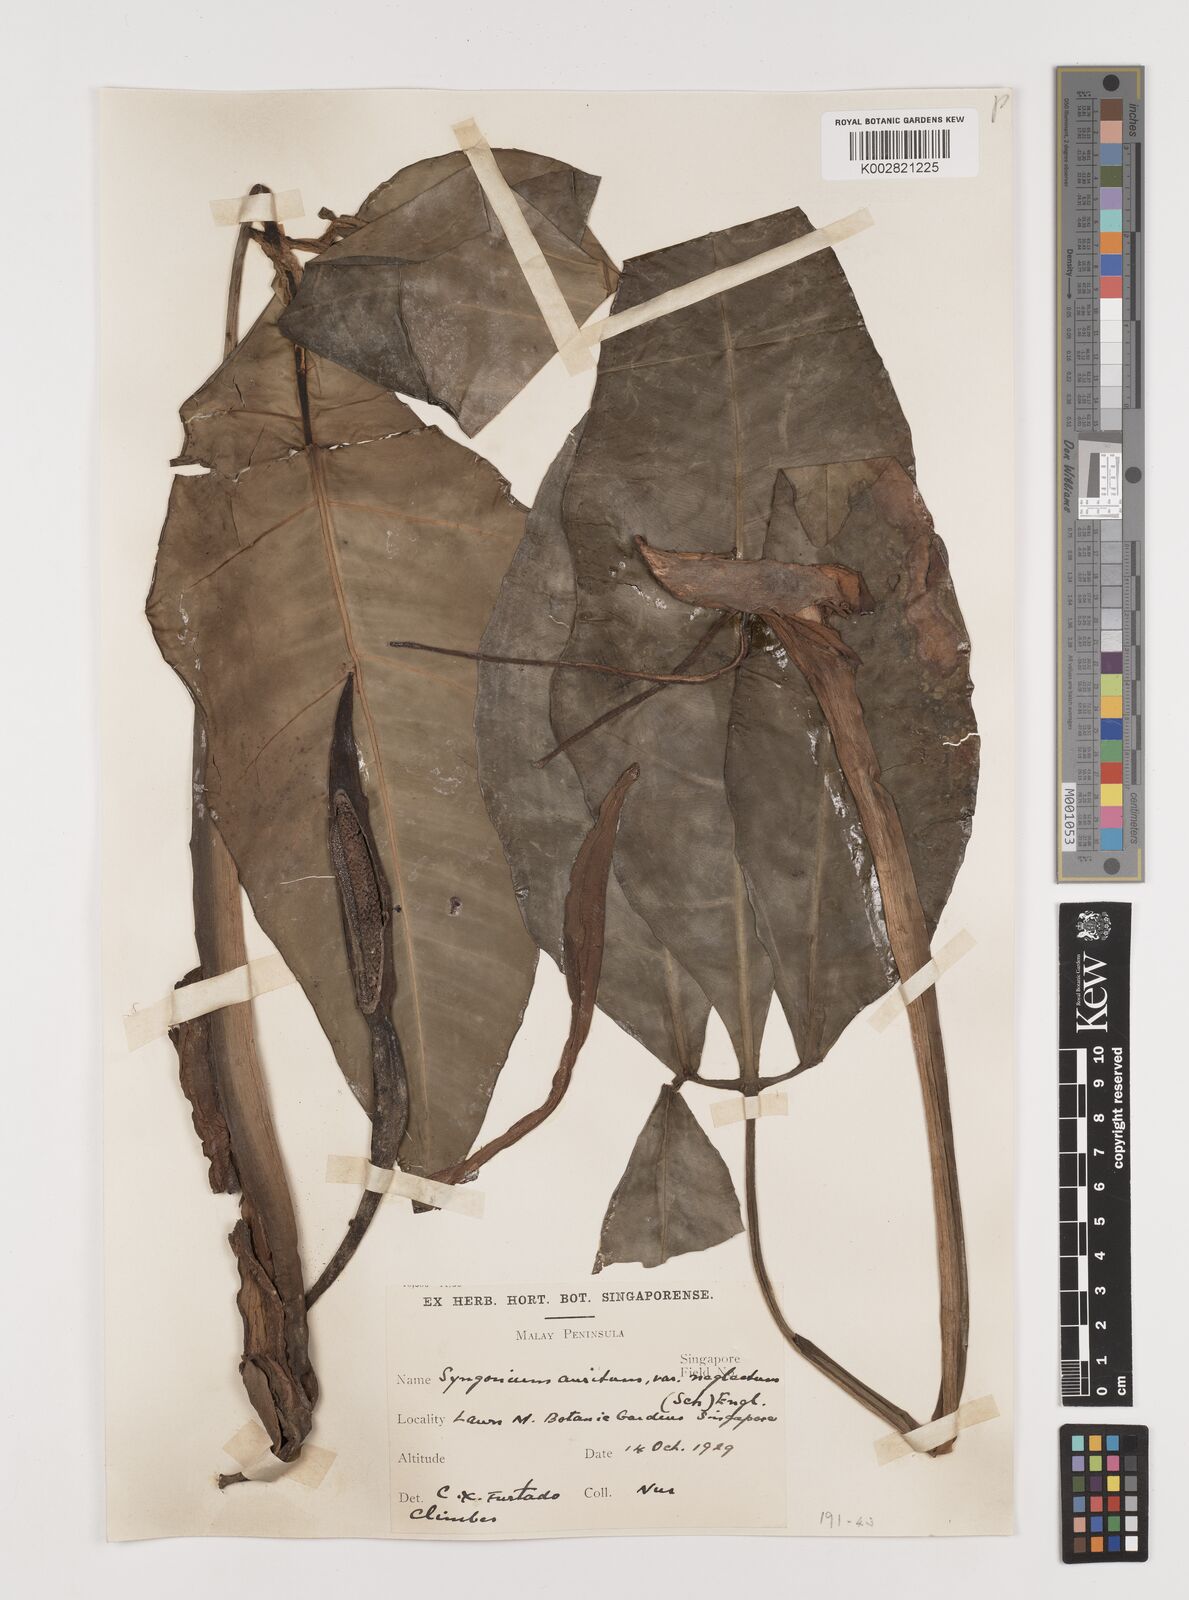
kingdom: Plantae
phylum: Tracheophyta
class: Liliopsida
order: Alismatales
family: Araceae
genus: Syngonium
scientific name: Syngonium auritum
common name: Five-fingers
